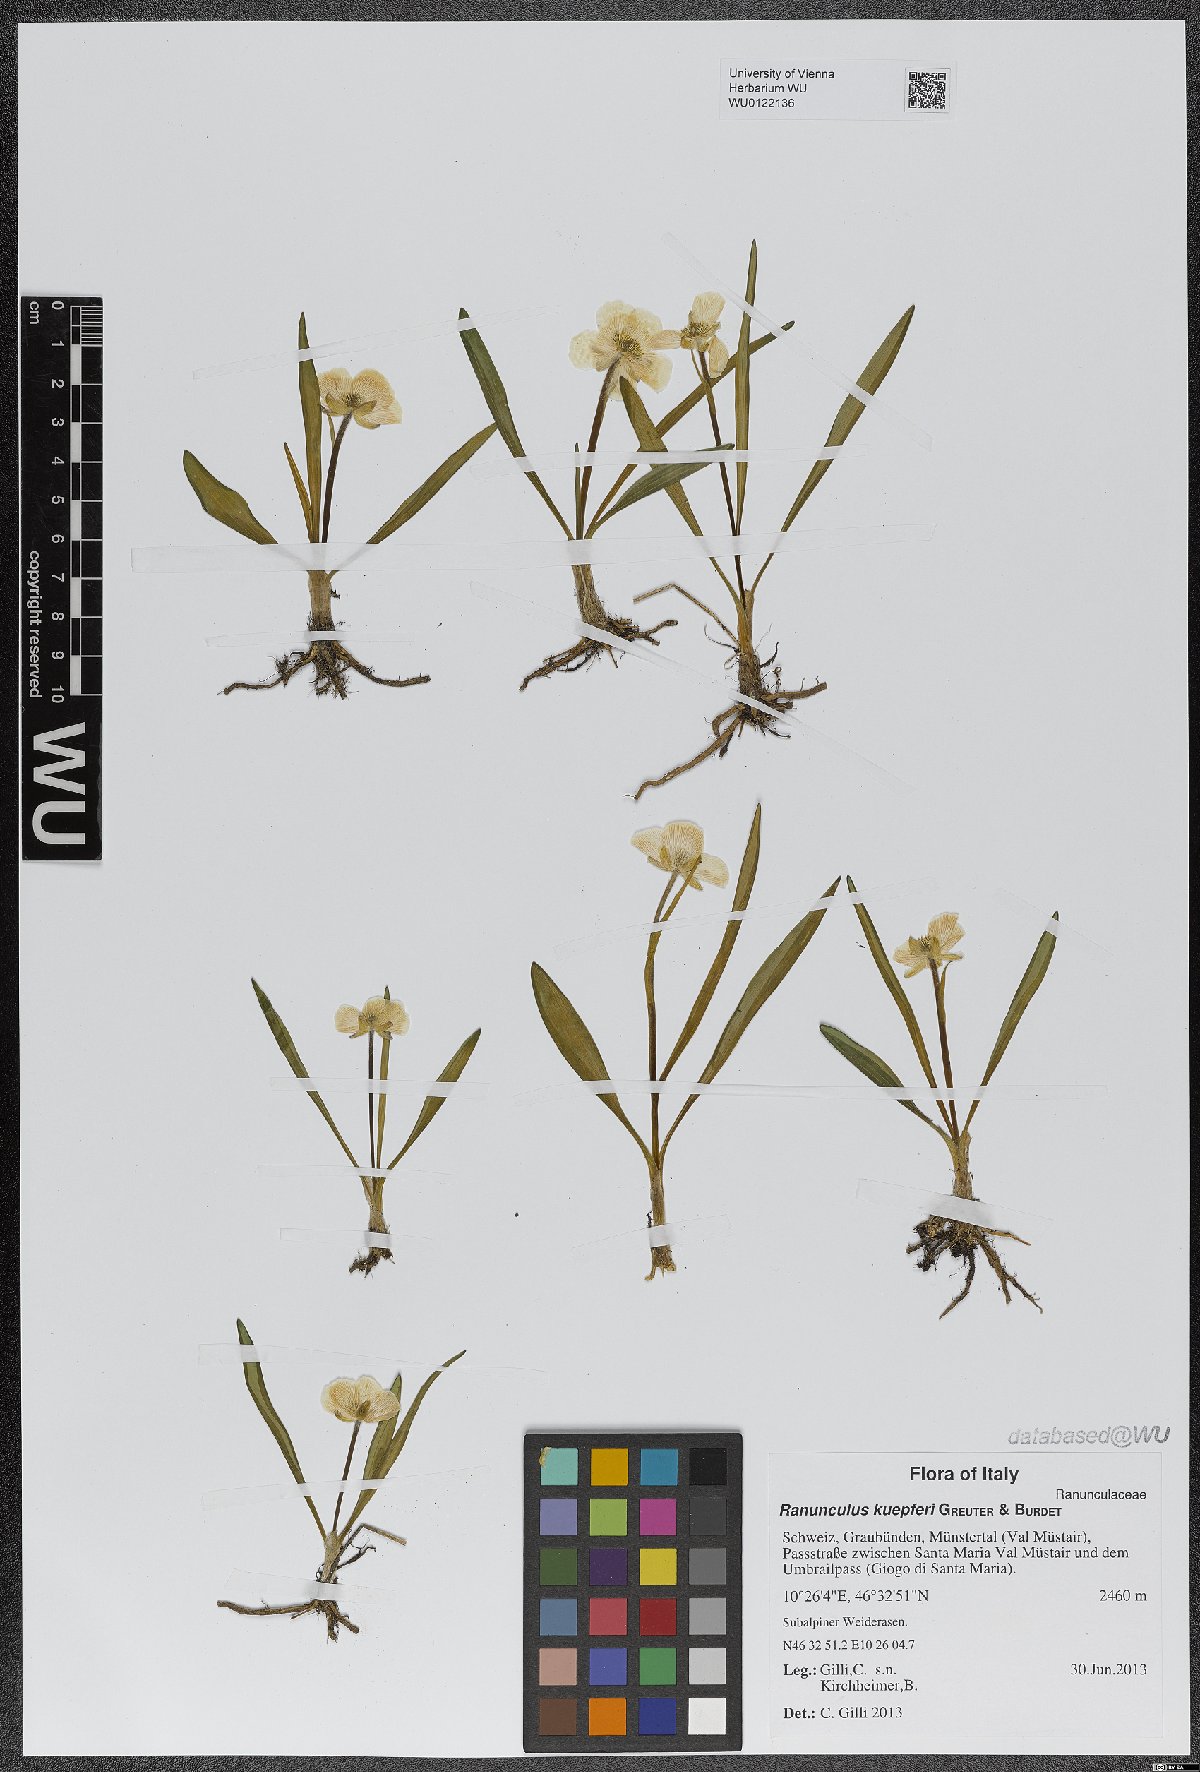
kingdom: Plantae
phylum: Tracheophyta
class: Magnoliopsida
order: Ranunculales
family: Ranunculaceae
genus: Ranunculus
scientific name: Ranunculus kuepferi
